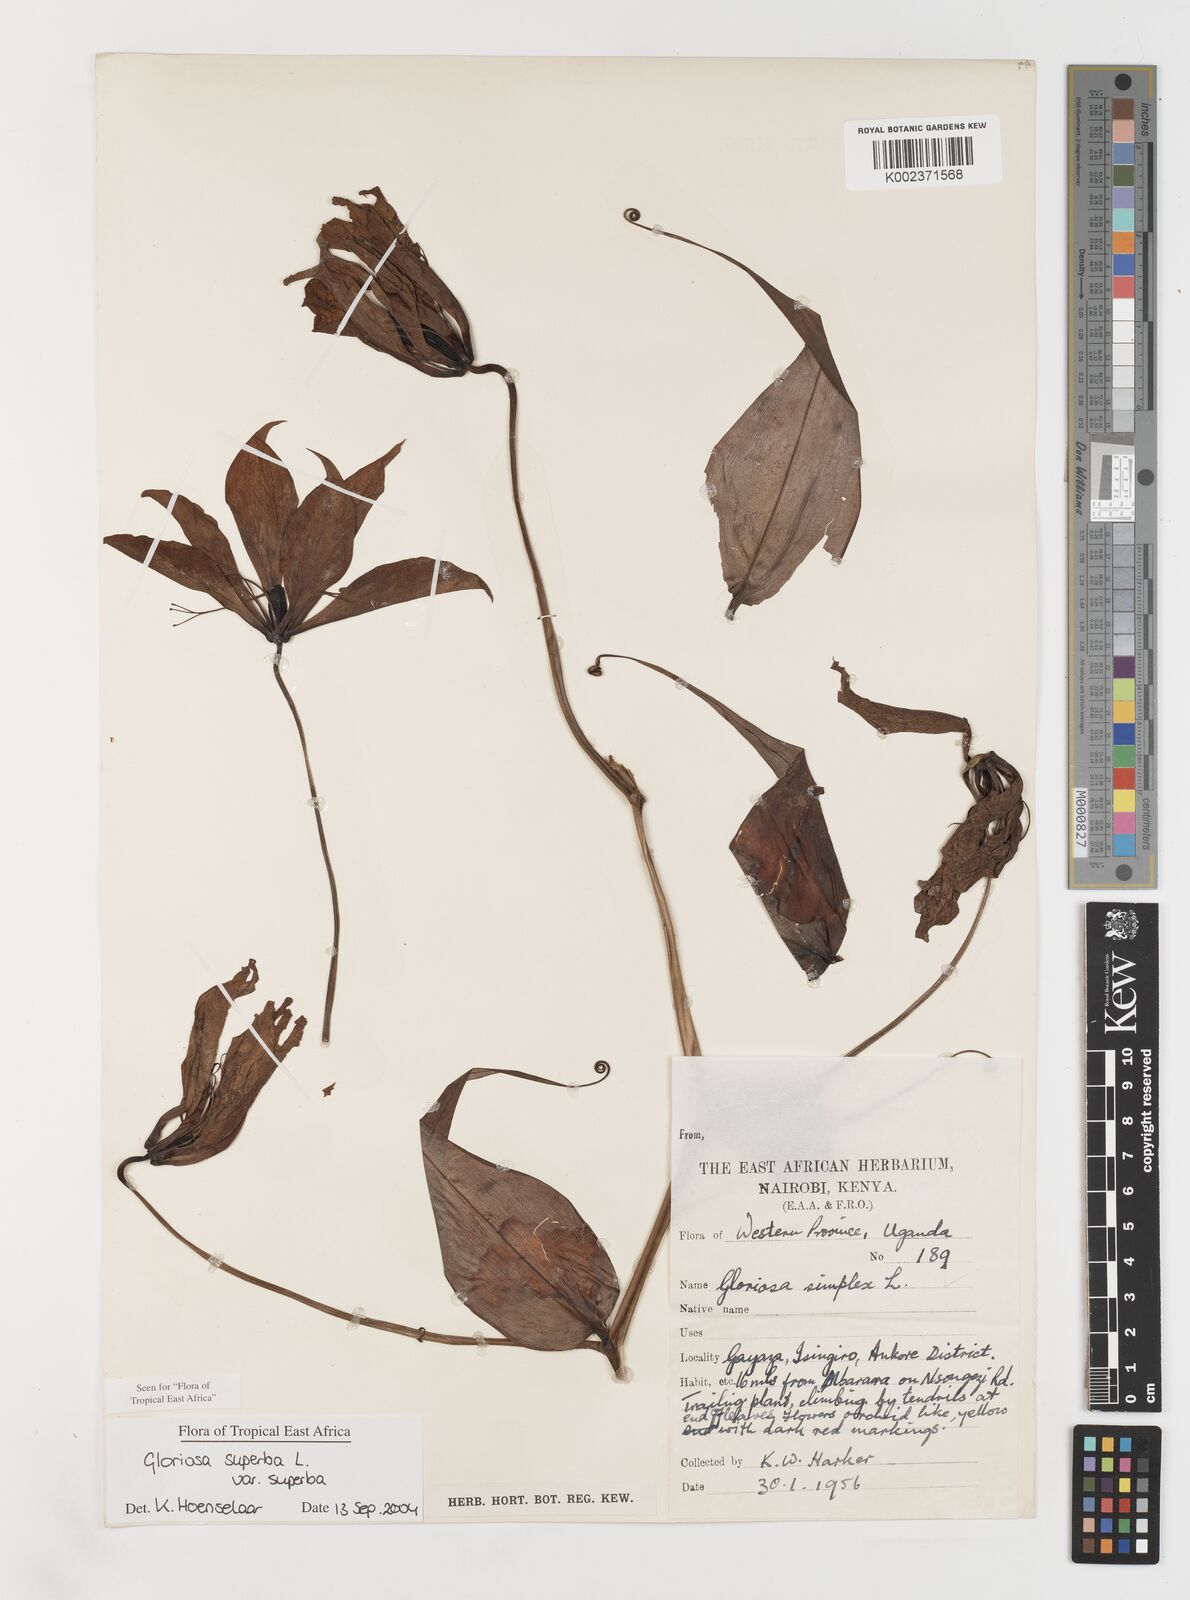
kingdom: Plantae
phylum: Tracheophyta
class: Liliopsida
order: Liliales
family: Colchicaceae
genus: Gloriosa
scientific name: Gloriosa simplex
